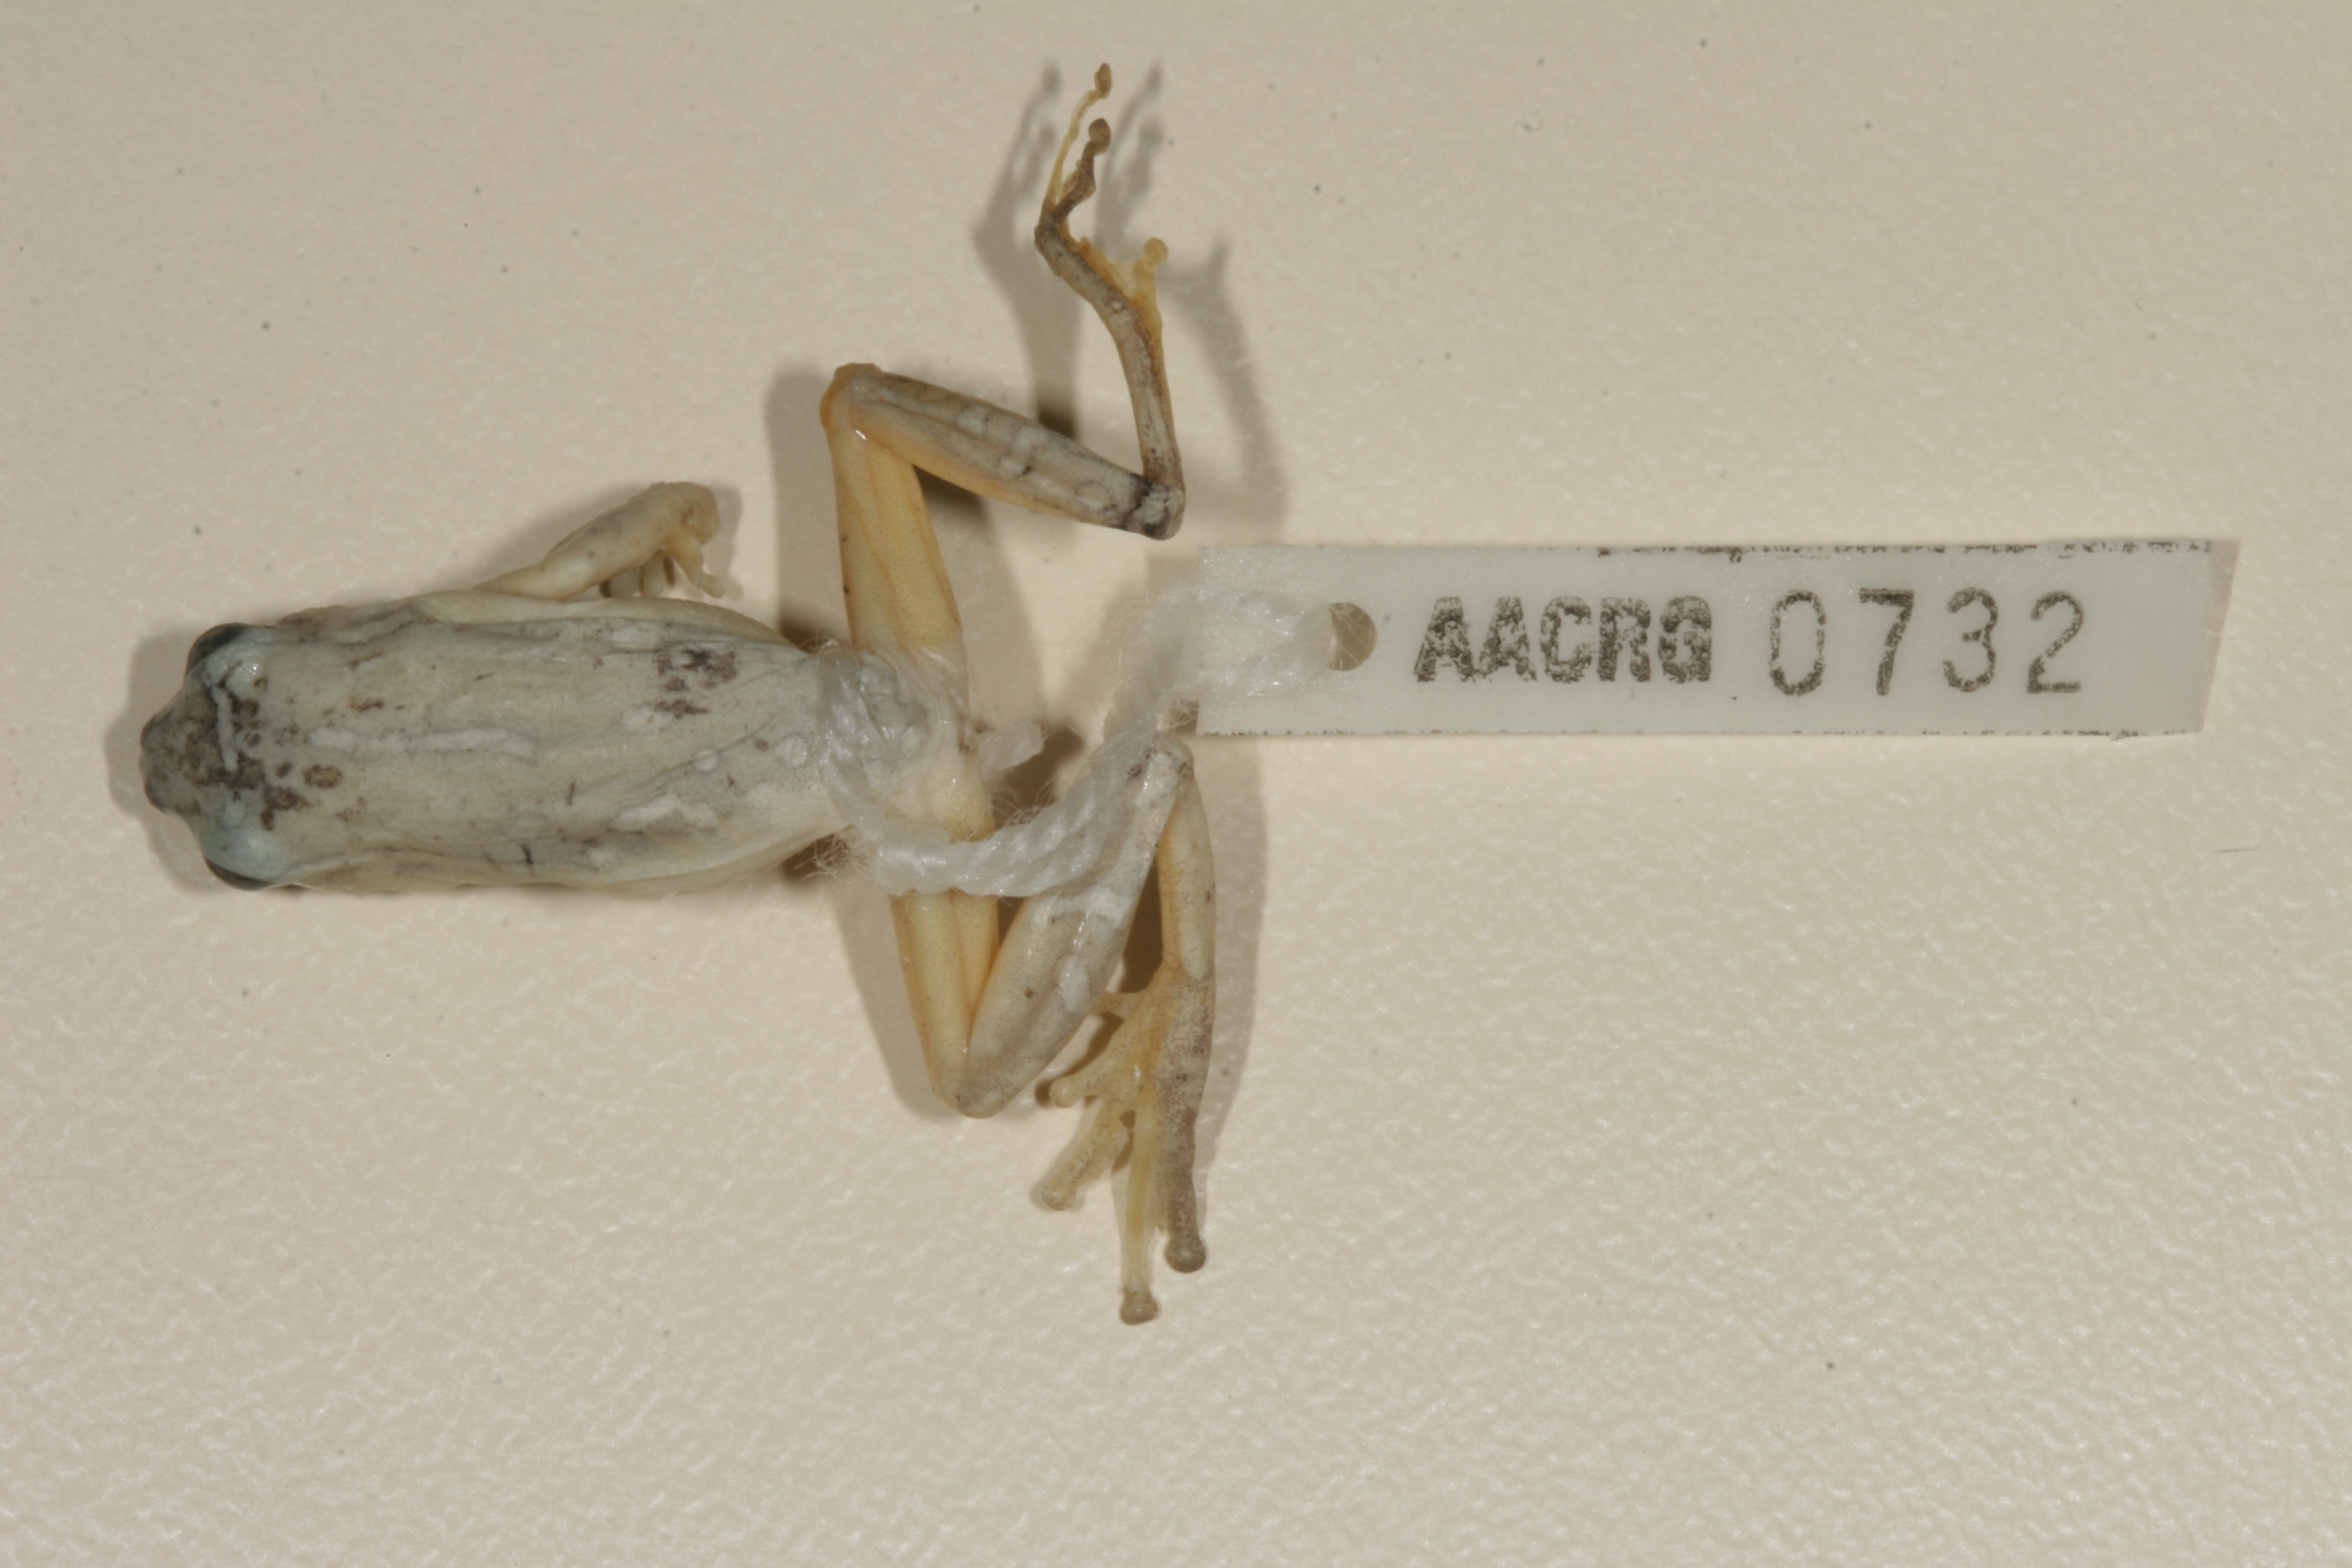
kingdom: Animalia
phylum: Chordata
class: Amphibia
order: Anura
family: Hyperoliidae
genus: Hyperolius
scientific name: Hyperolius marmoratus
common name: Painted reed frog
